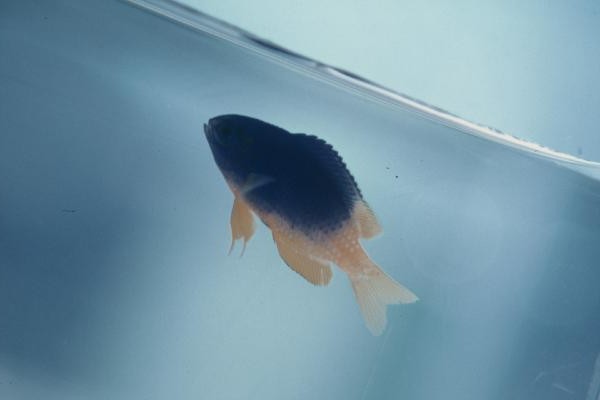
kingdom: Animalia
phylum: Chordata
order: Perciformes
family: Pomacentridae
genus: Pomacentrus
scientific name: Pomacentrus caeruleus
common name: Caerulean damsel
